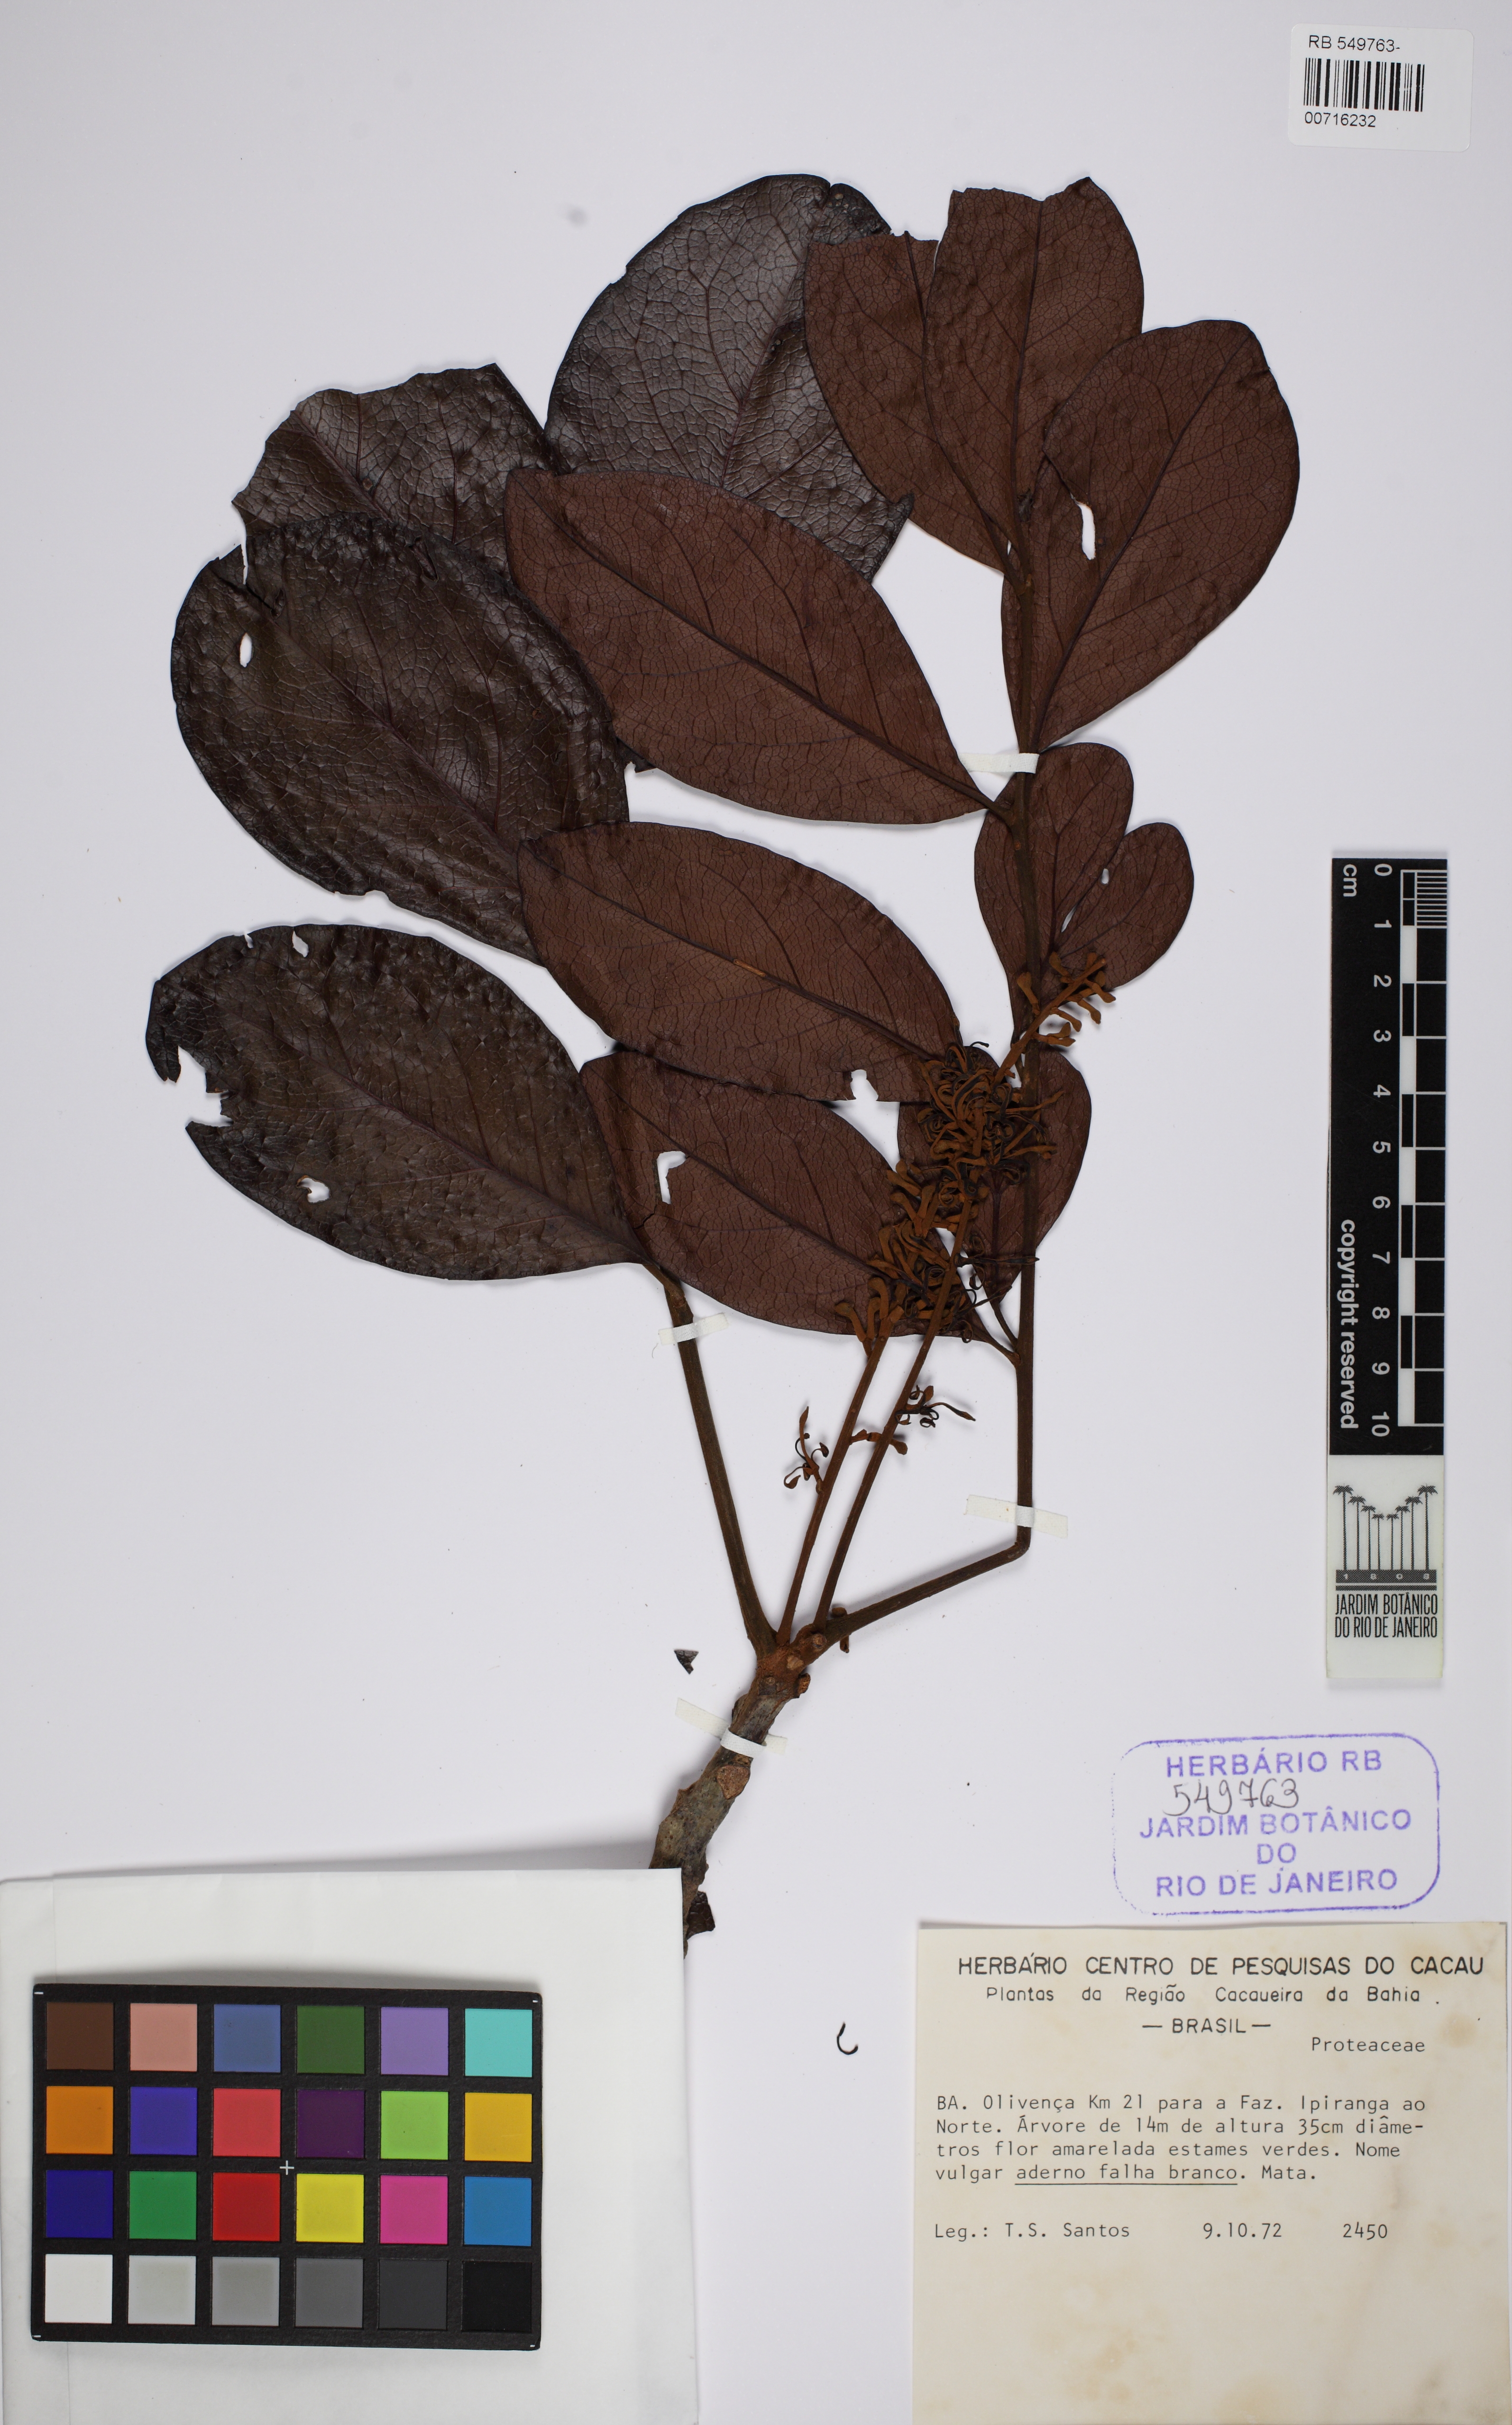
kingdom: Plantae
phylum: Tracheophyta
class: Magnoliopsida
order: Proteales
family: Proteaceae
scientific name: Proteaceae
